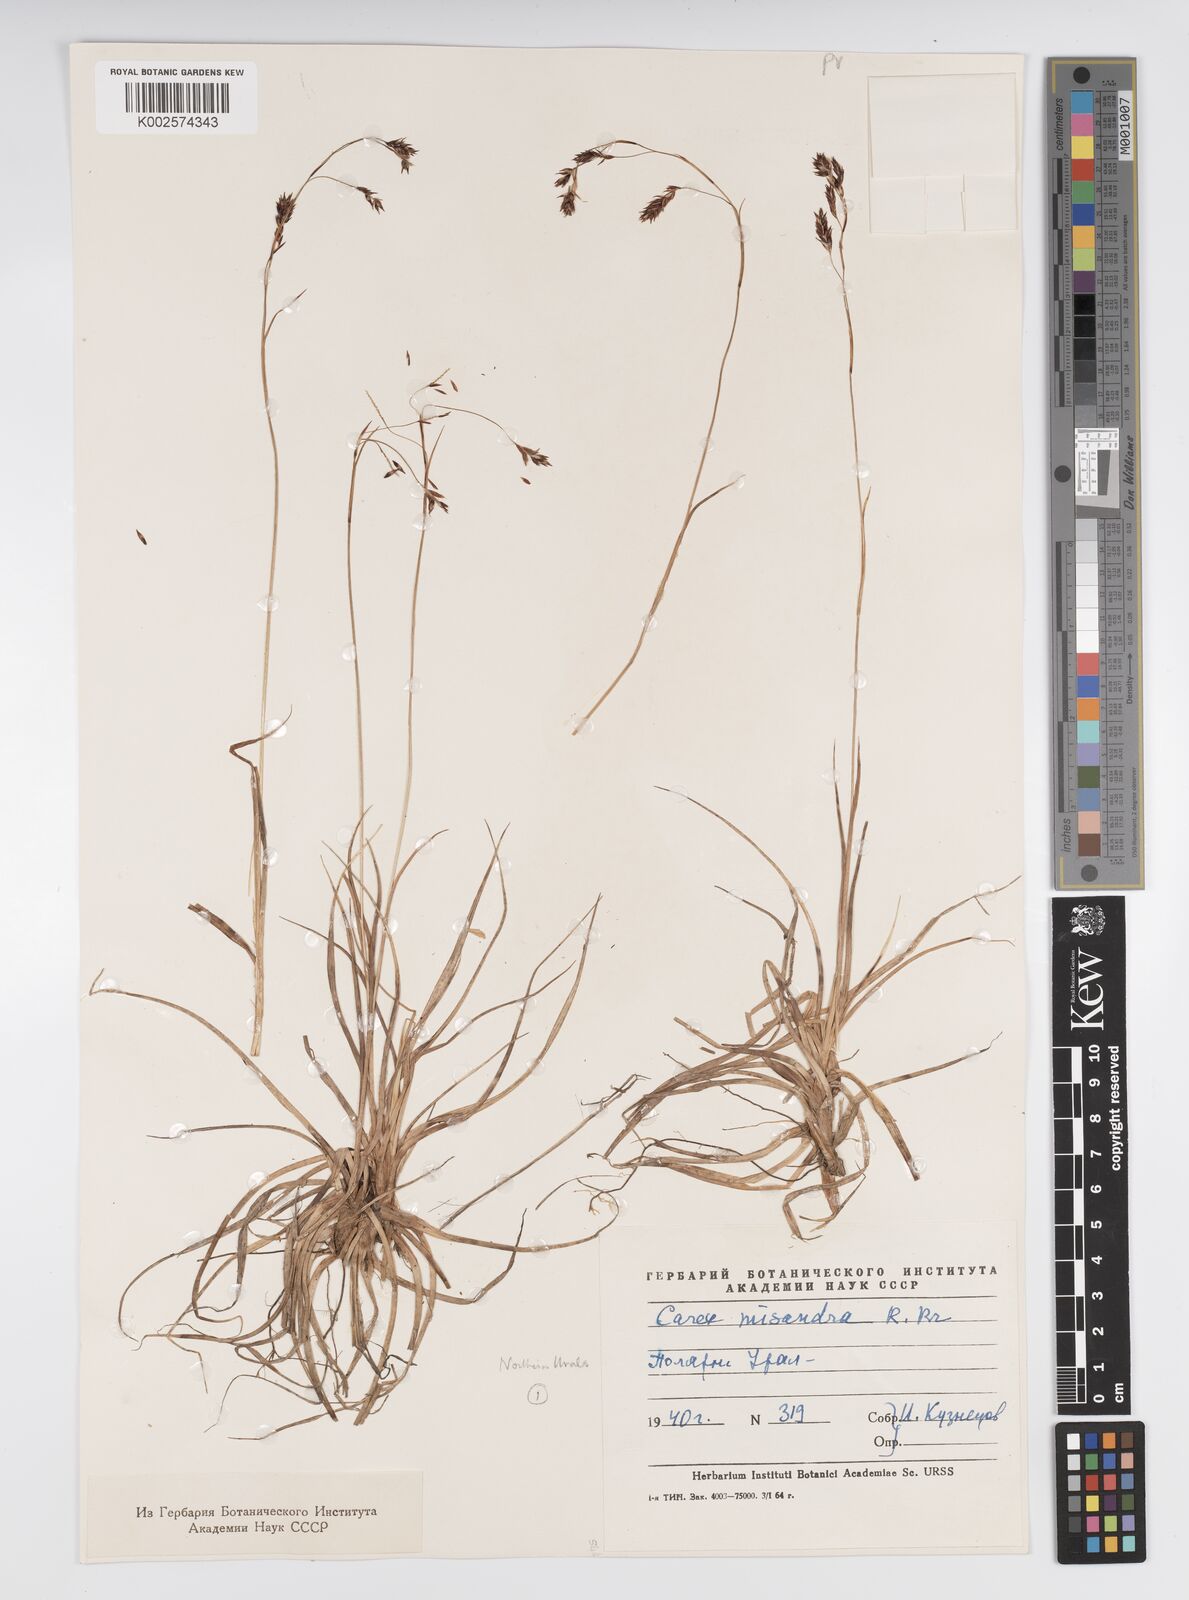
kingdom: Plantae
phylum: Tracheophyta
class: Liliopsida
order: Poales
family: Cyperaceae
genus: Carex
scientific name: Carex fuliginosa
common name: Few-flowered sedge
